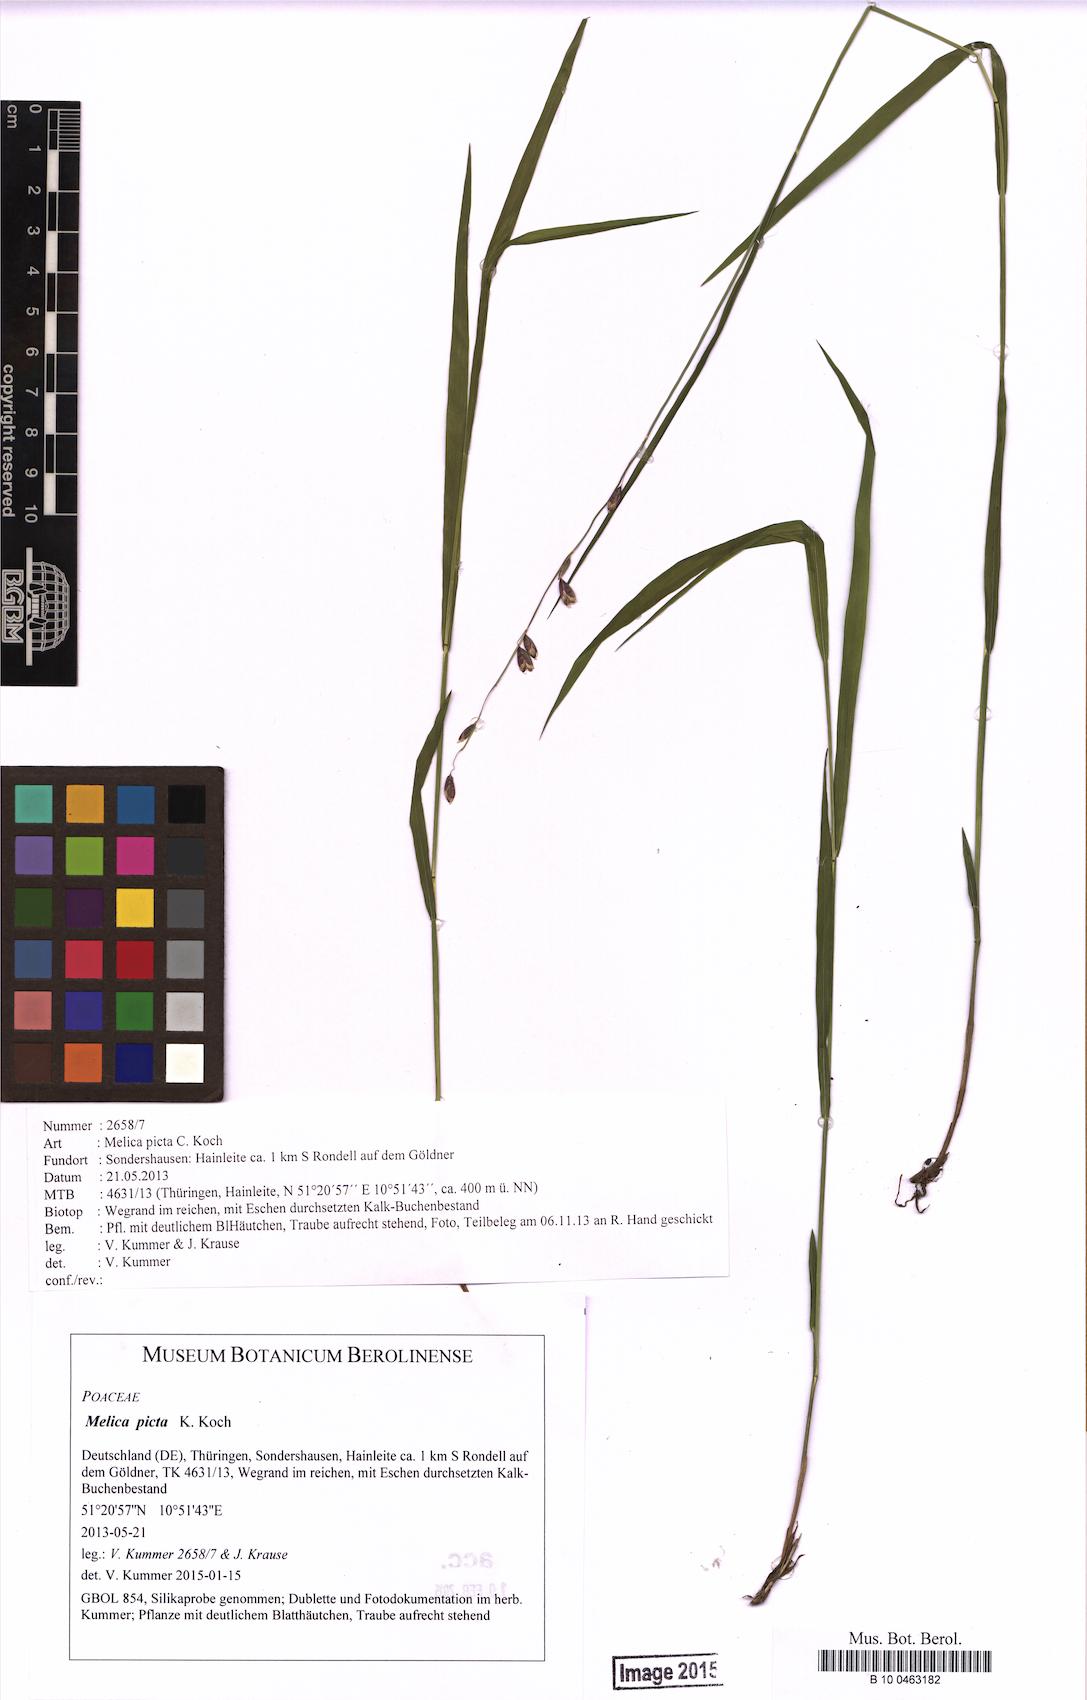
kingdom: Plantae
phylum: Tracheophyta
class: Liliopsida
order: Poales
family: Poaceae
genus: Melica
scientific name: Melica picta
